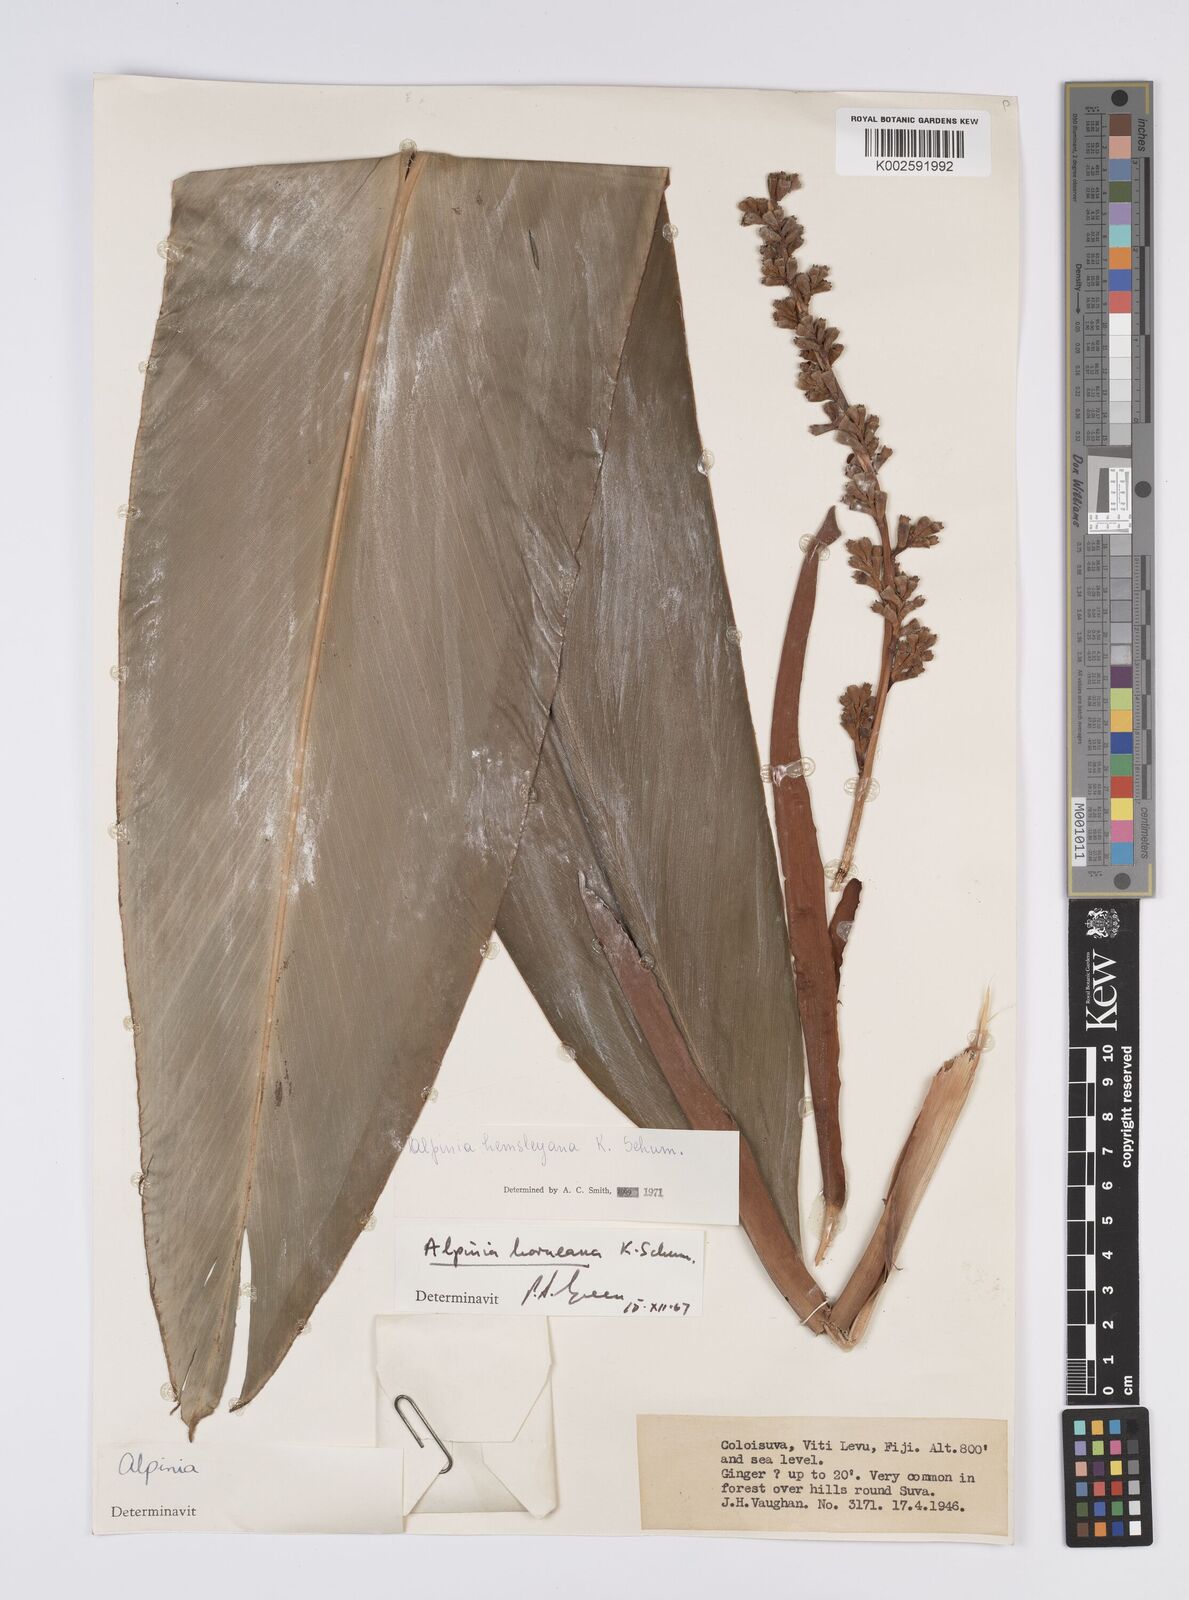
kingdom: Plantae
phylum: Tracheophyta
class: Liliopsida
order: Zingiberales
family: Zingiberaceae
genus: Alpinia
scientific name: Alpinia boia
